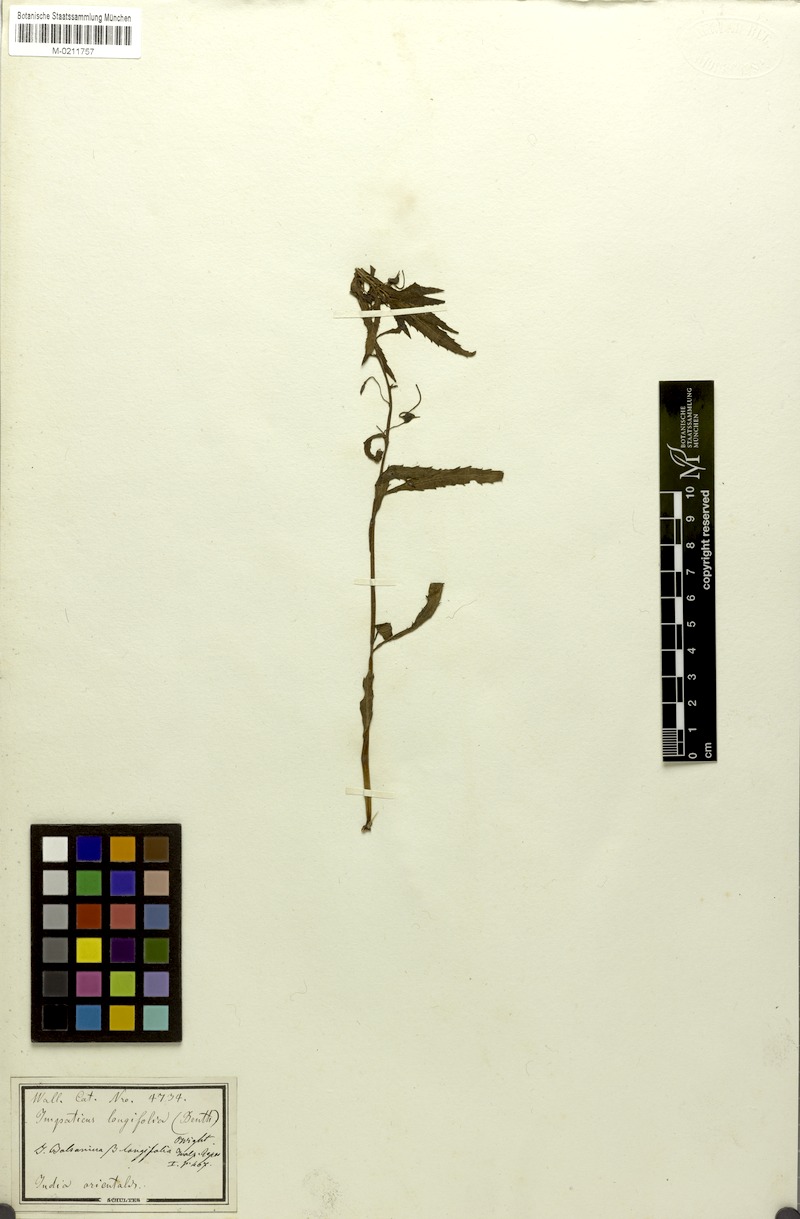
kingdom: Plantae
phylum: Tracheophyta
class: Magnoliopsida
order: Ericales
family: Balsaminaceae
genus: Impatiens
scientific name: Impatiens balsamina
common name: Balsam
